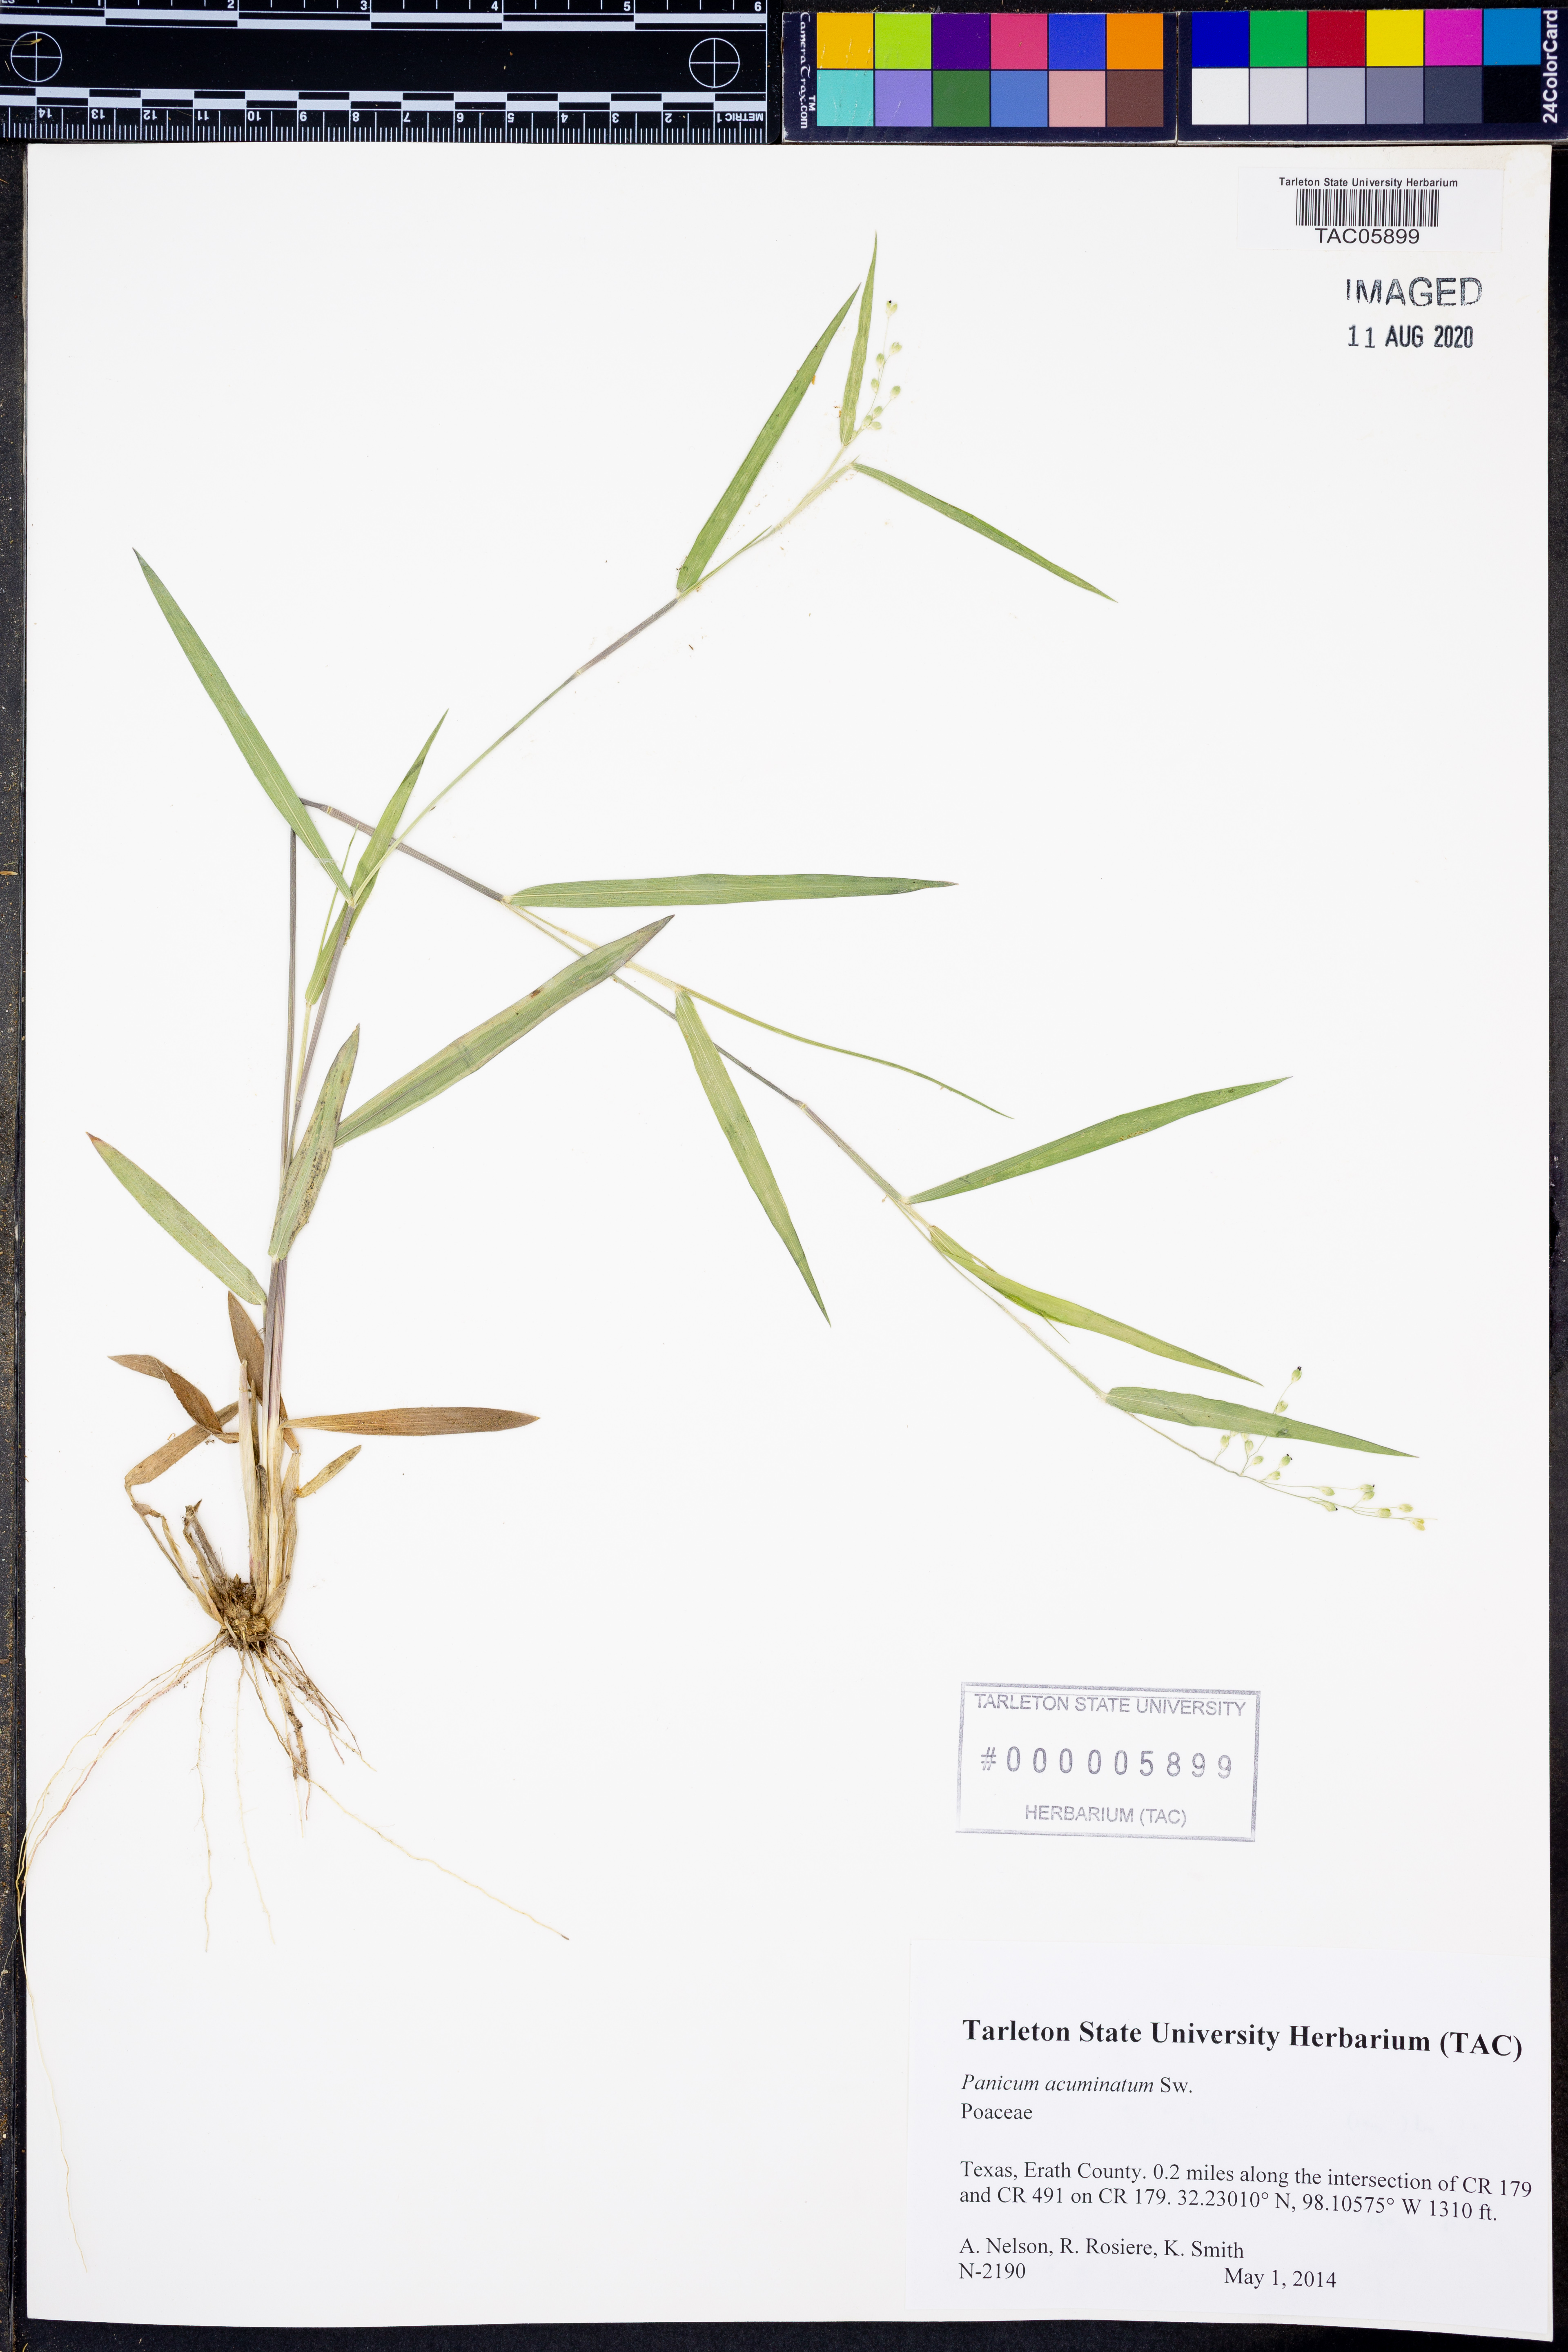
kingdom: Plantae
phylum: Tracheophyta
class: Liliopsida
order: Poales
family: Poaceae
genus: Dichanthelium
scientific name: Dichanthelium acuminatum
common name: Hairy panic grass
